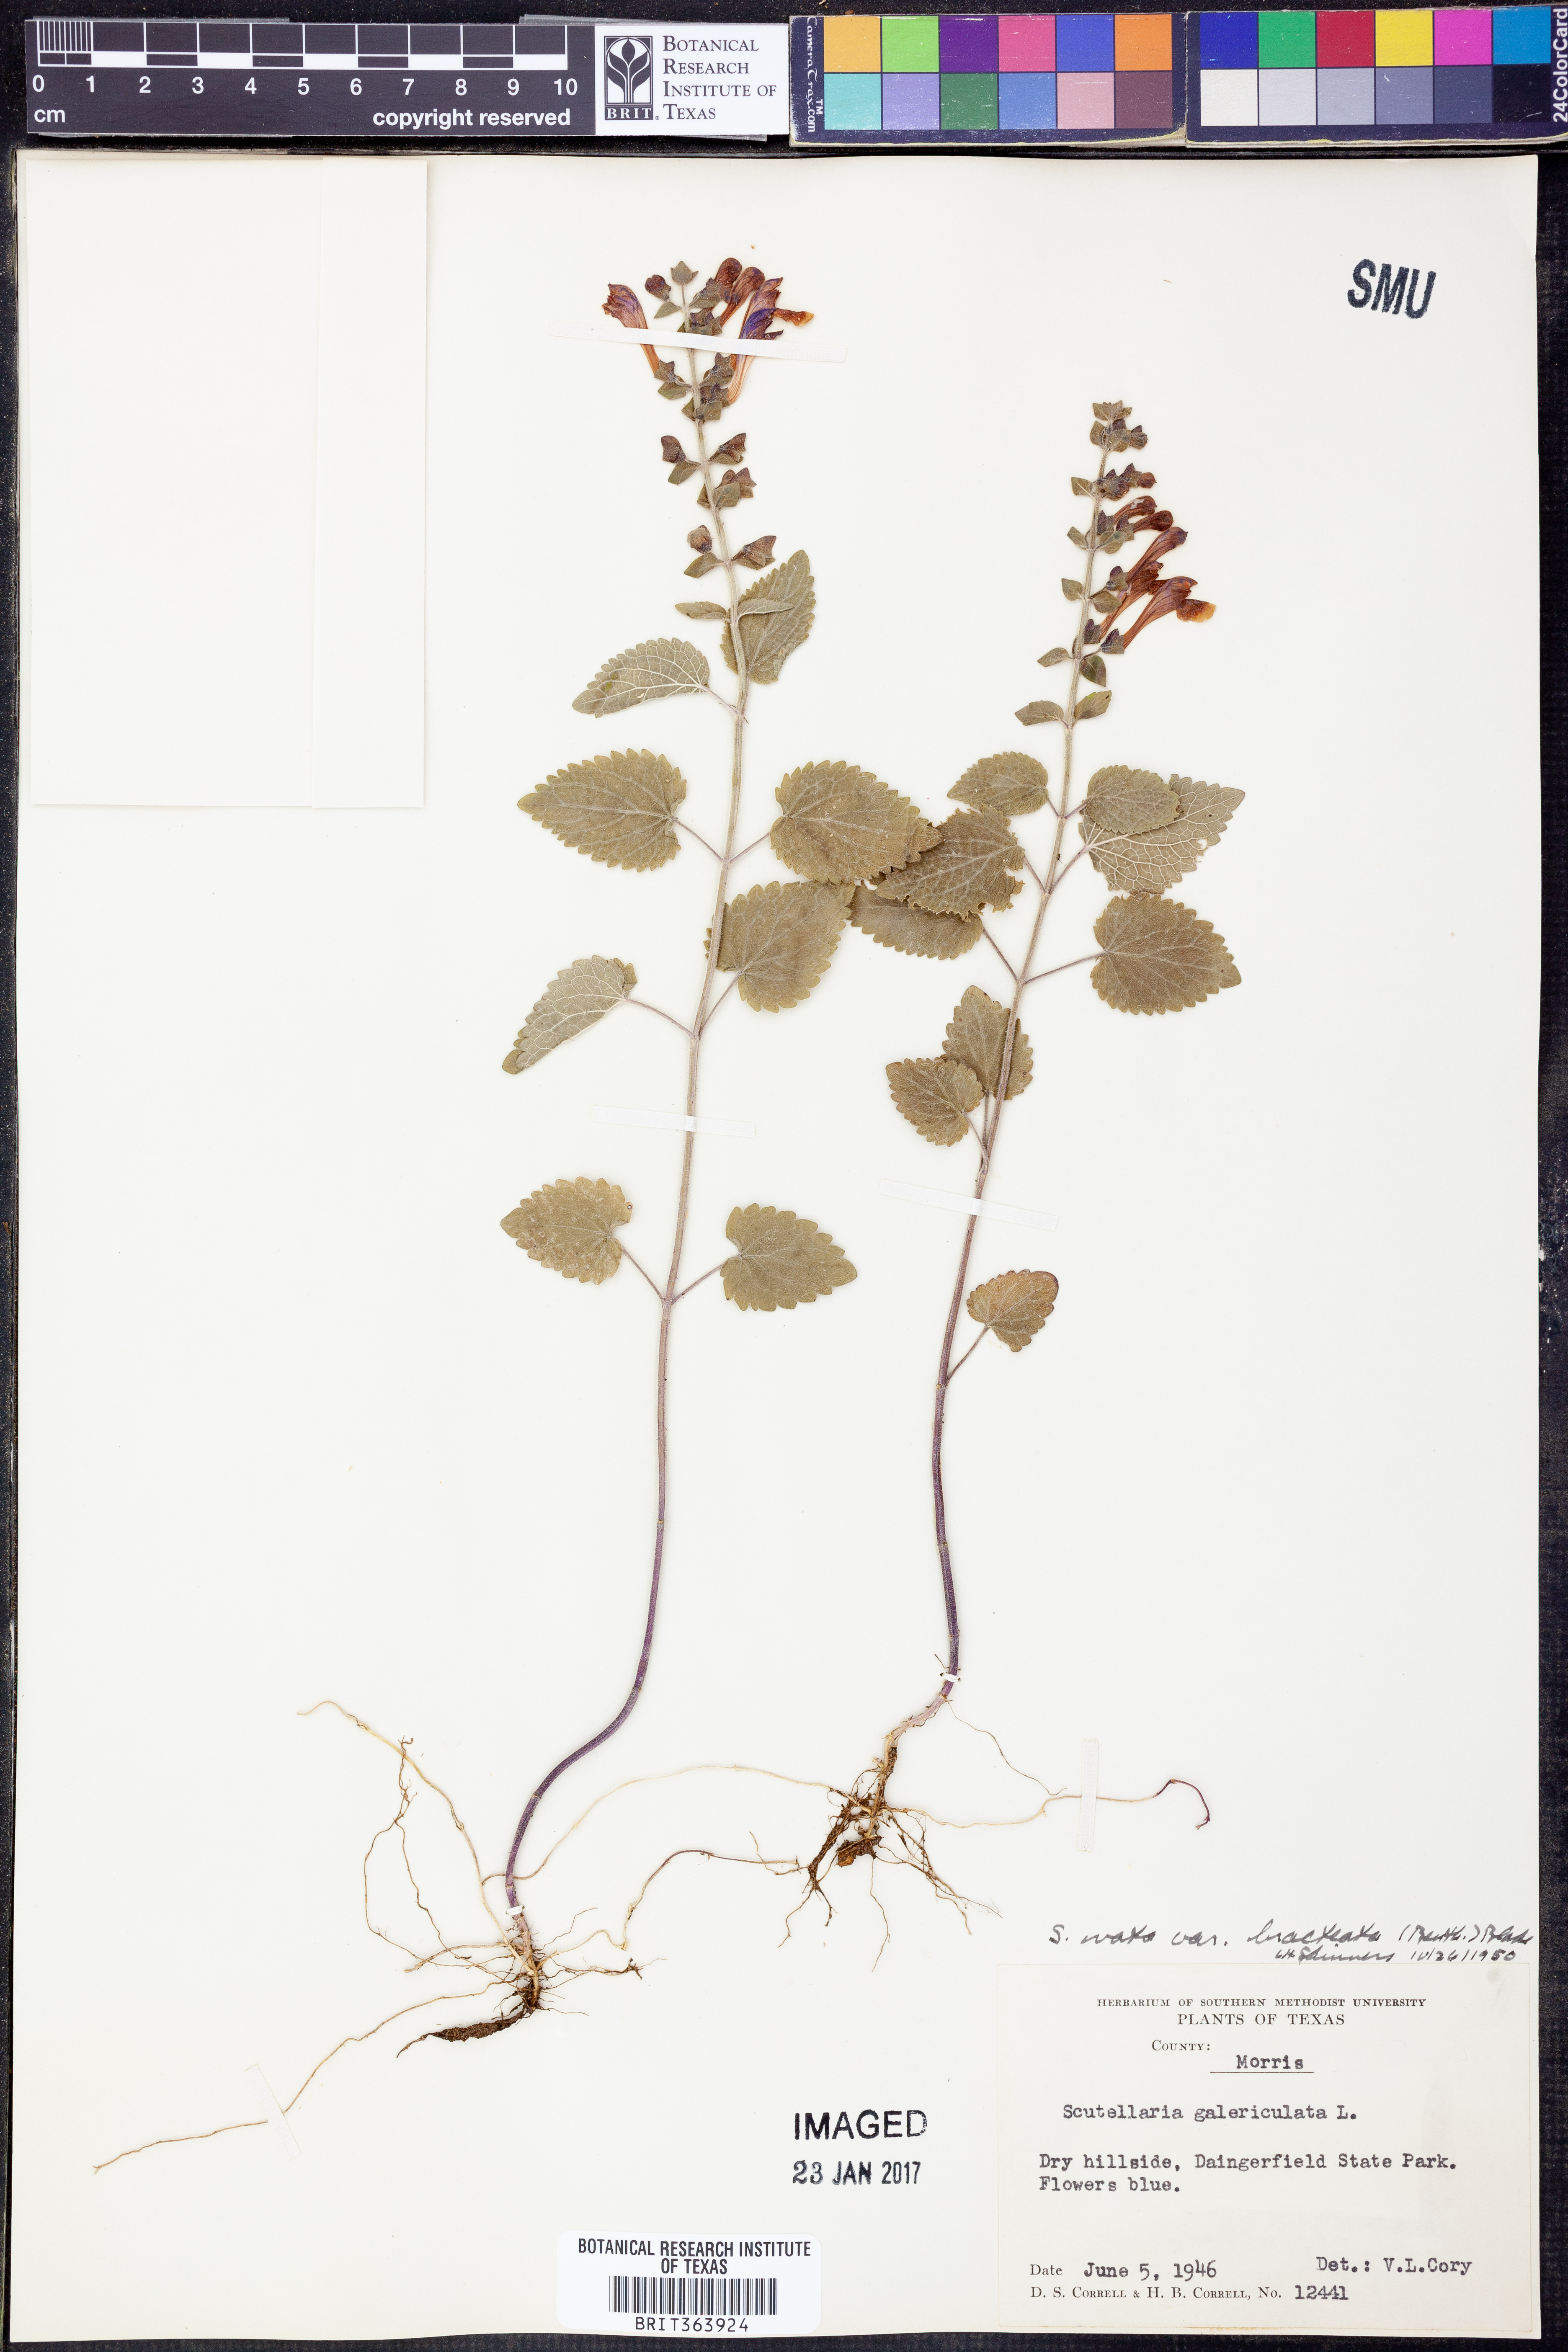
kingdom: Plantae
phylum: Tracheophyta
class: Magnoliopsida
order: Lamiales
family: Lamiaceae
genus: Scutellaria
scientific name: Scutellaria ovata
